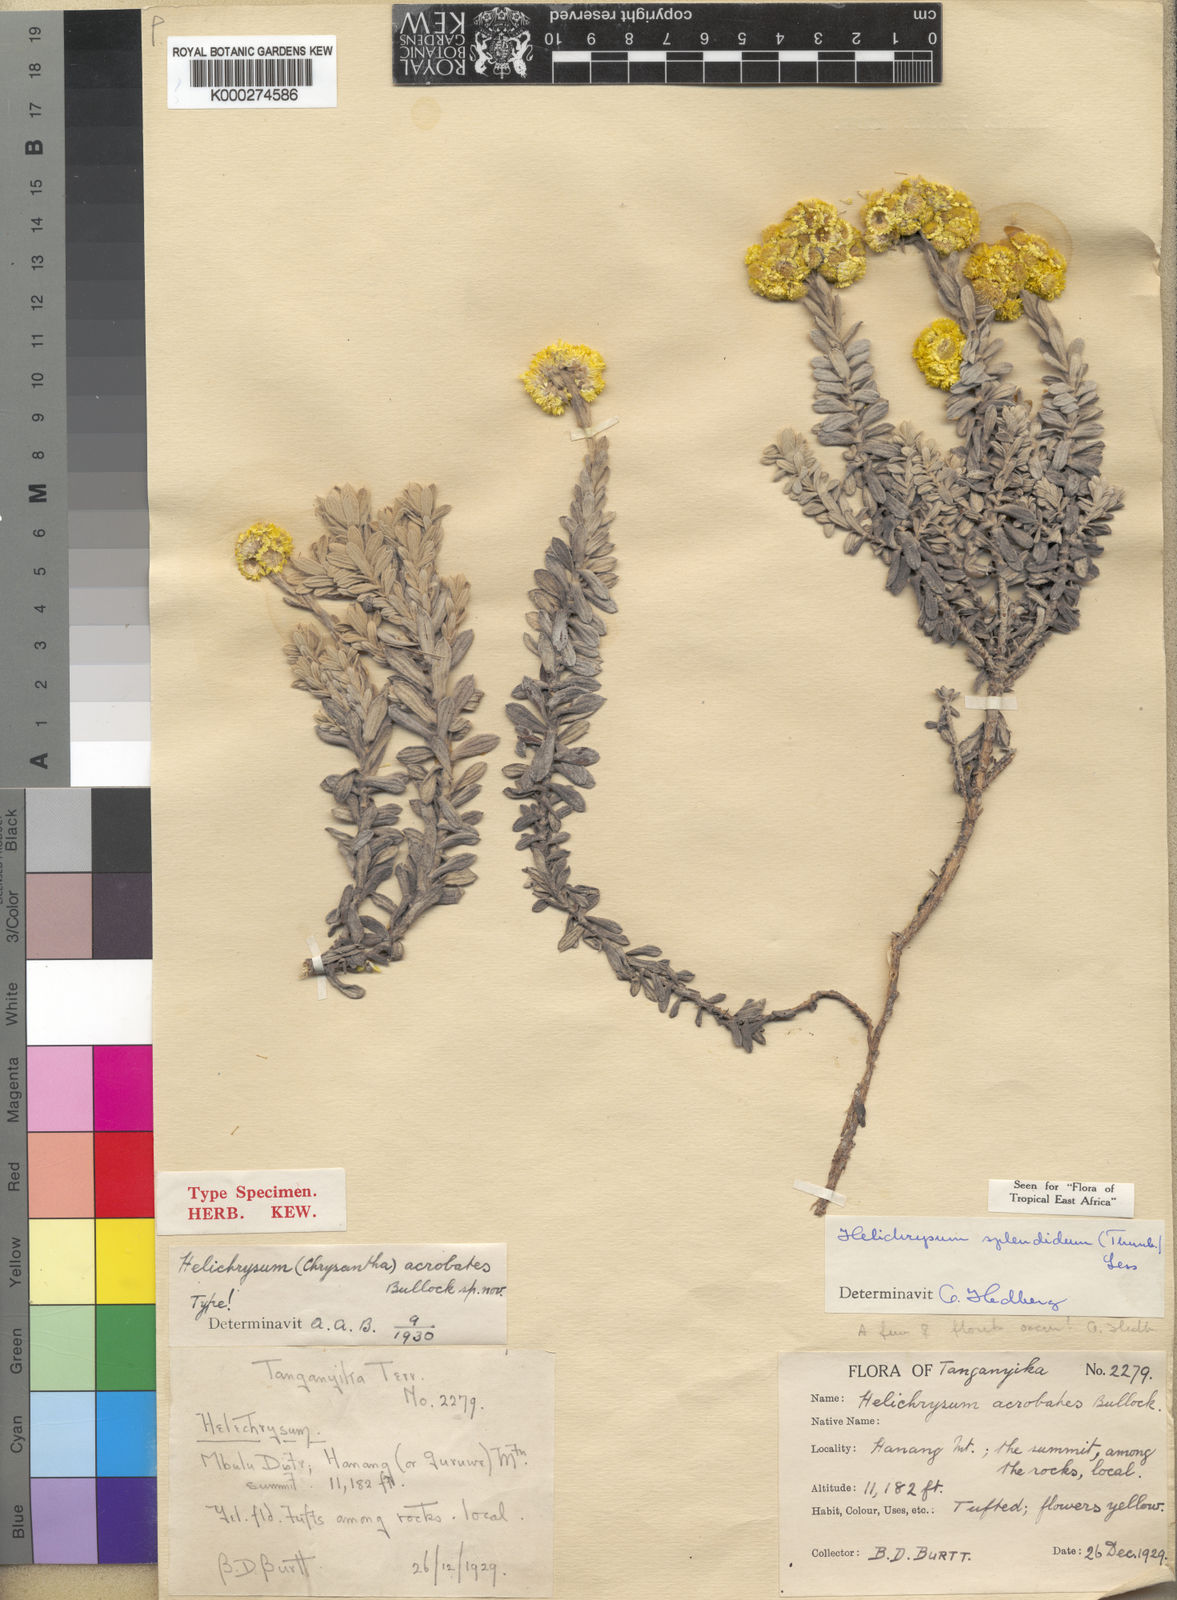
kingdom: Plantae
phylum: Tracheophyta
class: Magnoliopsida
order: Asterales
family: Asteraceae
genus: Helichrysum
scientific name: Helichrysum splendidum
